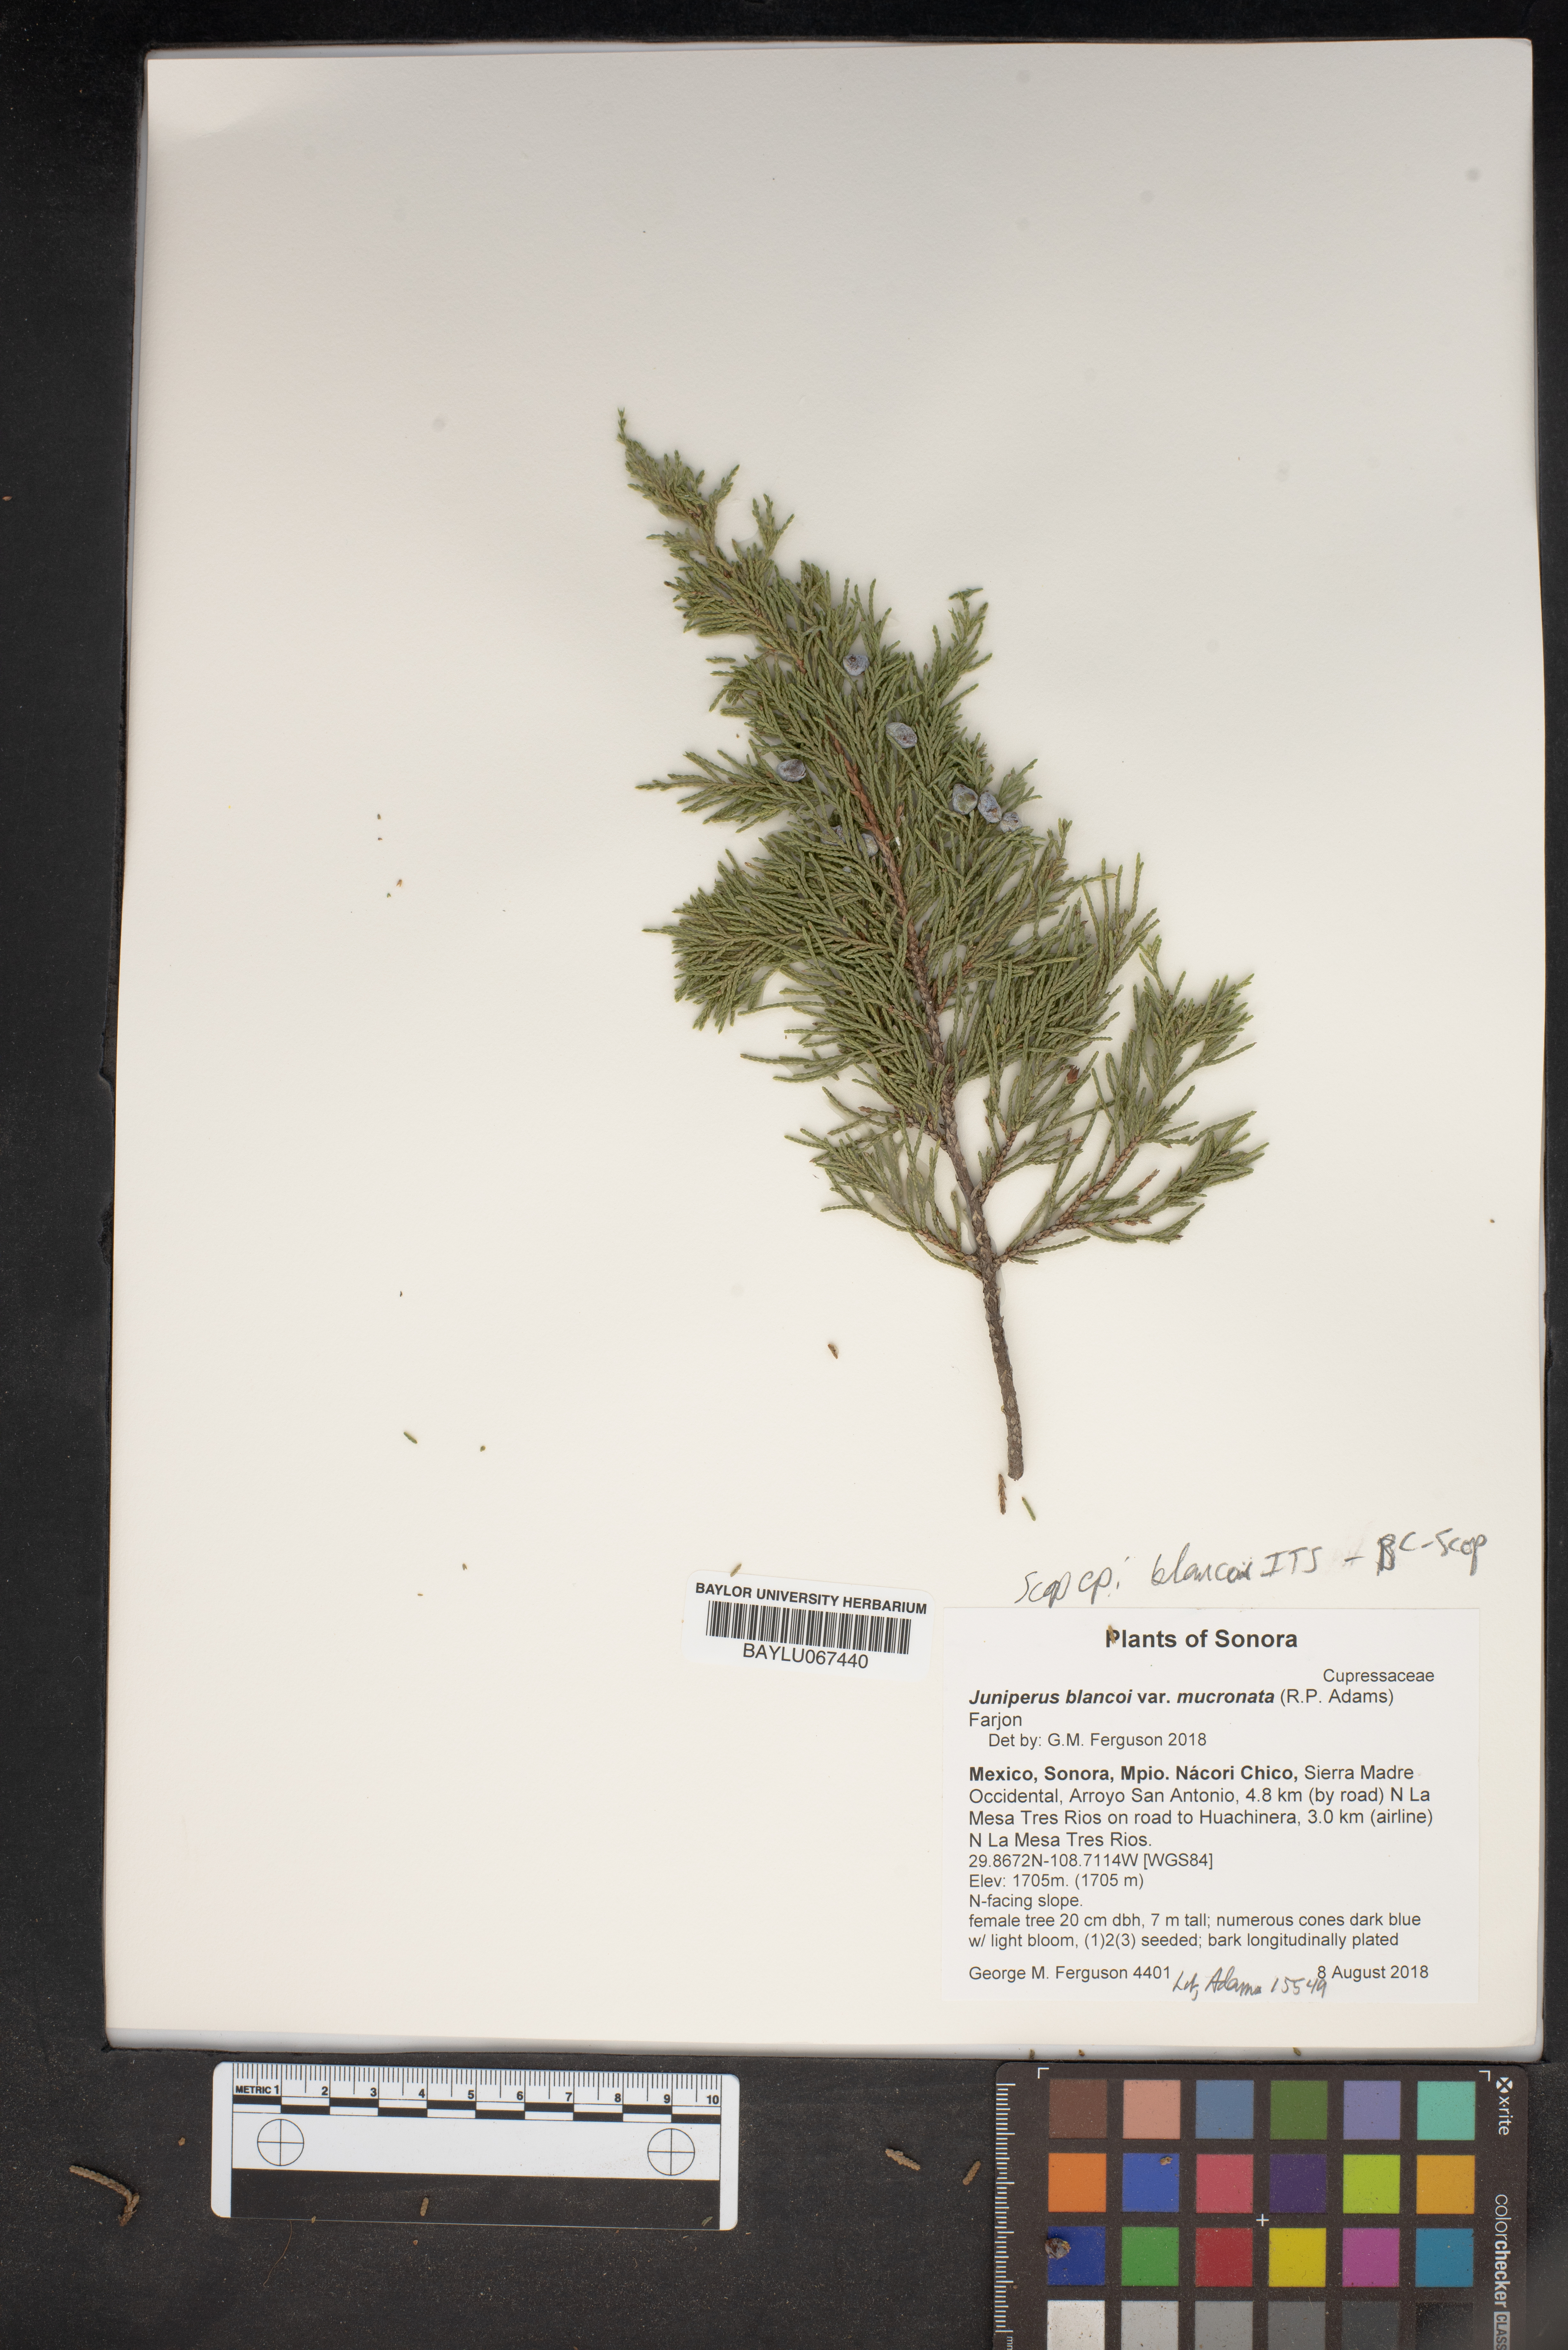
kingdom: Plantae
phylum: Tracheophyta
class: Pinopsida
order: Pinales
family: Cupressaceae
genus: Juniperus
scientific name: Juniperus blancoi
